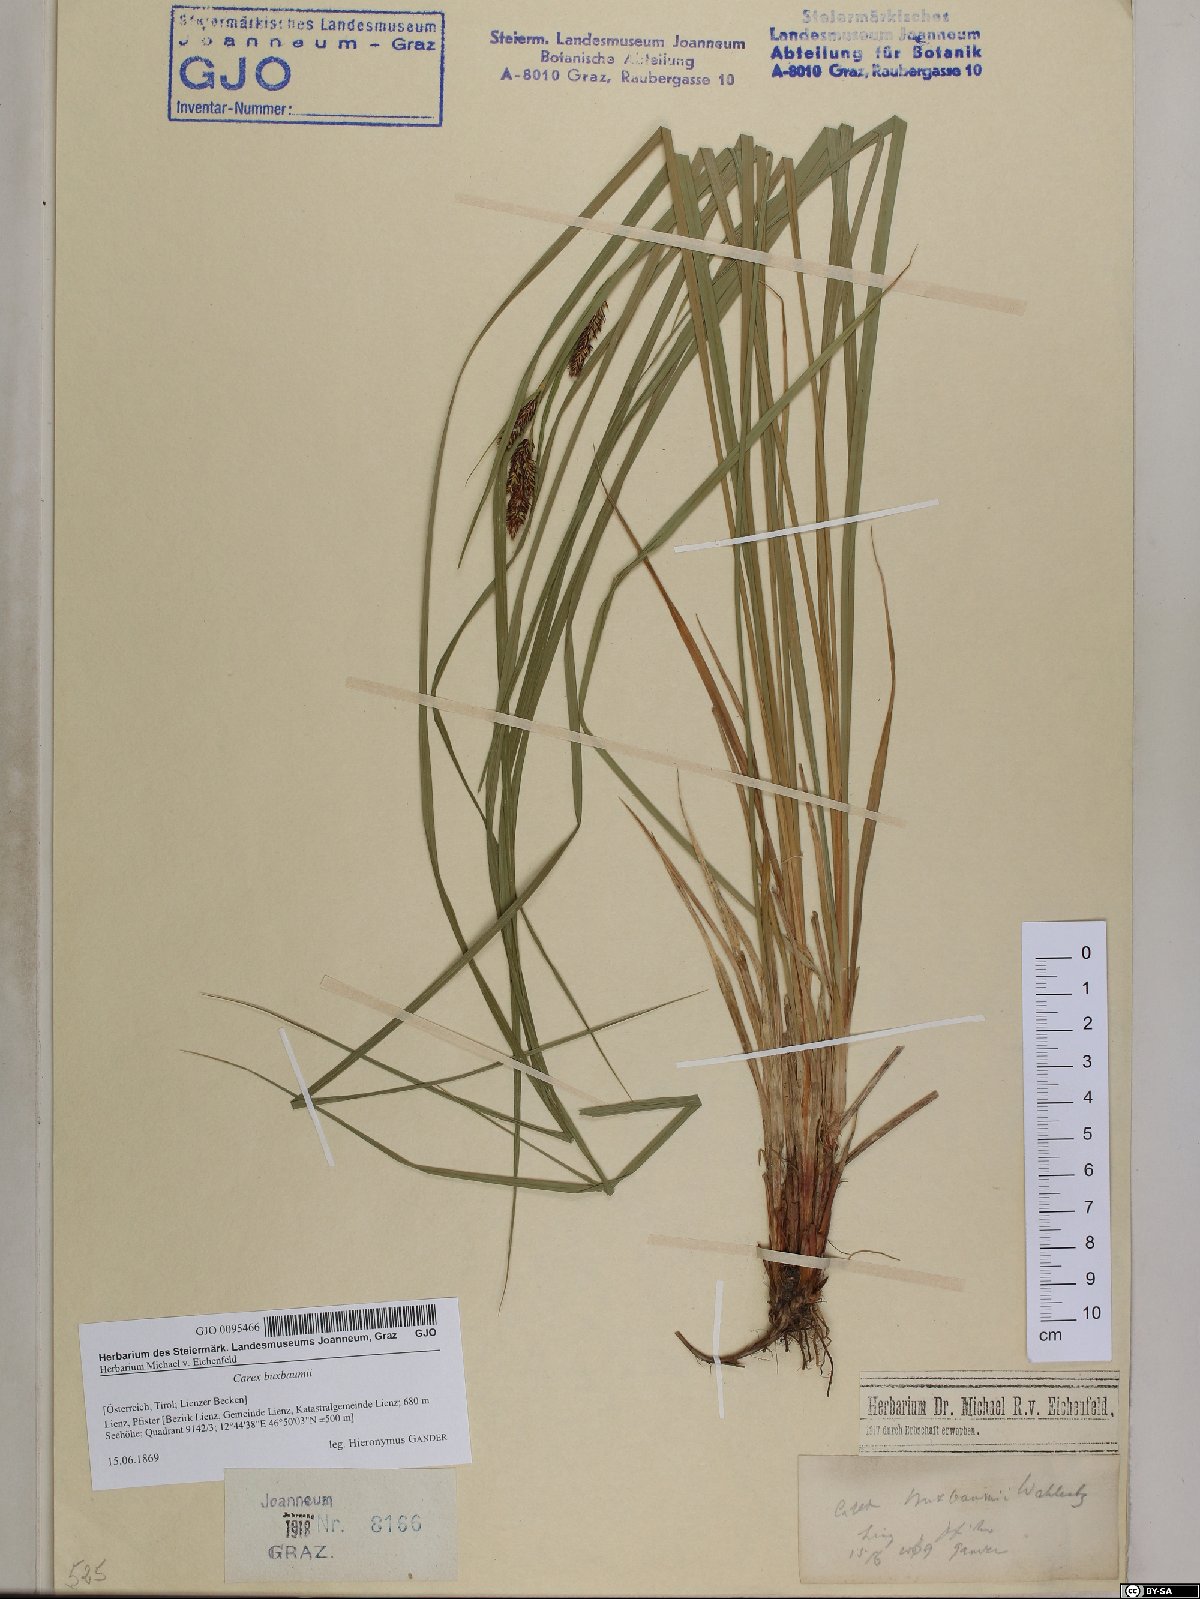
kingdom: Plantae
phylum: Tracheophyta
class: Liliopsida
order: Poales
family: Cyperaceae
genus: Carex
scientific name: Carex buxbaumii
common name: Club sedge
